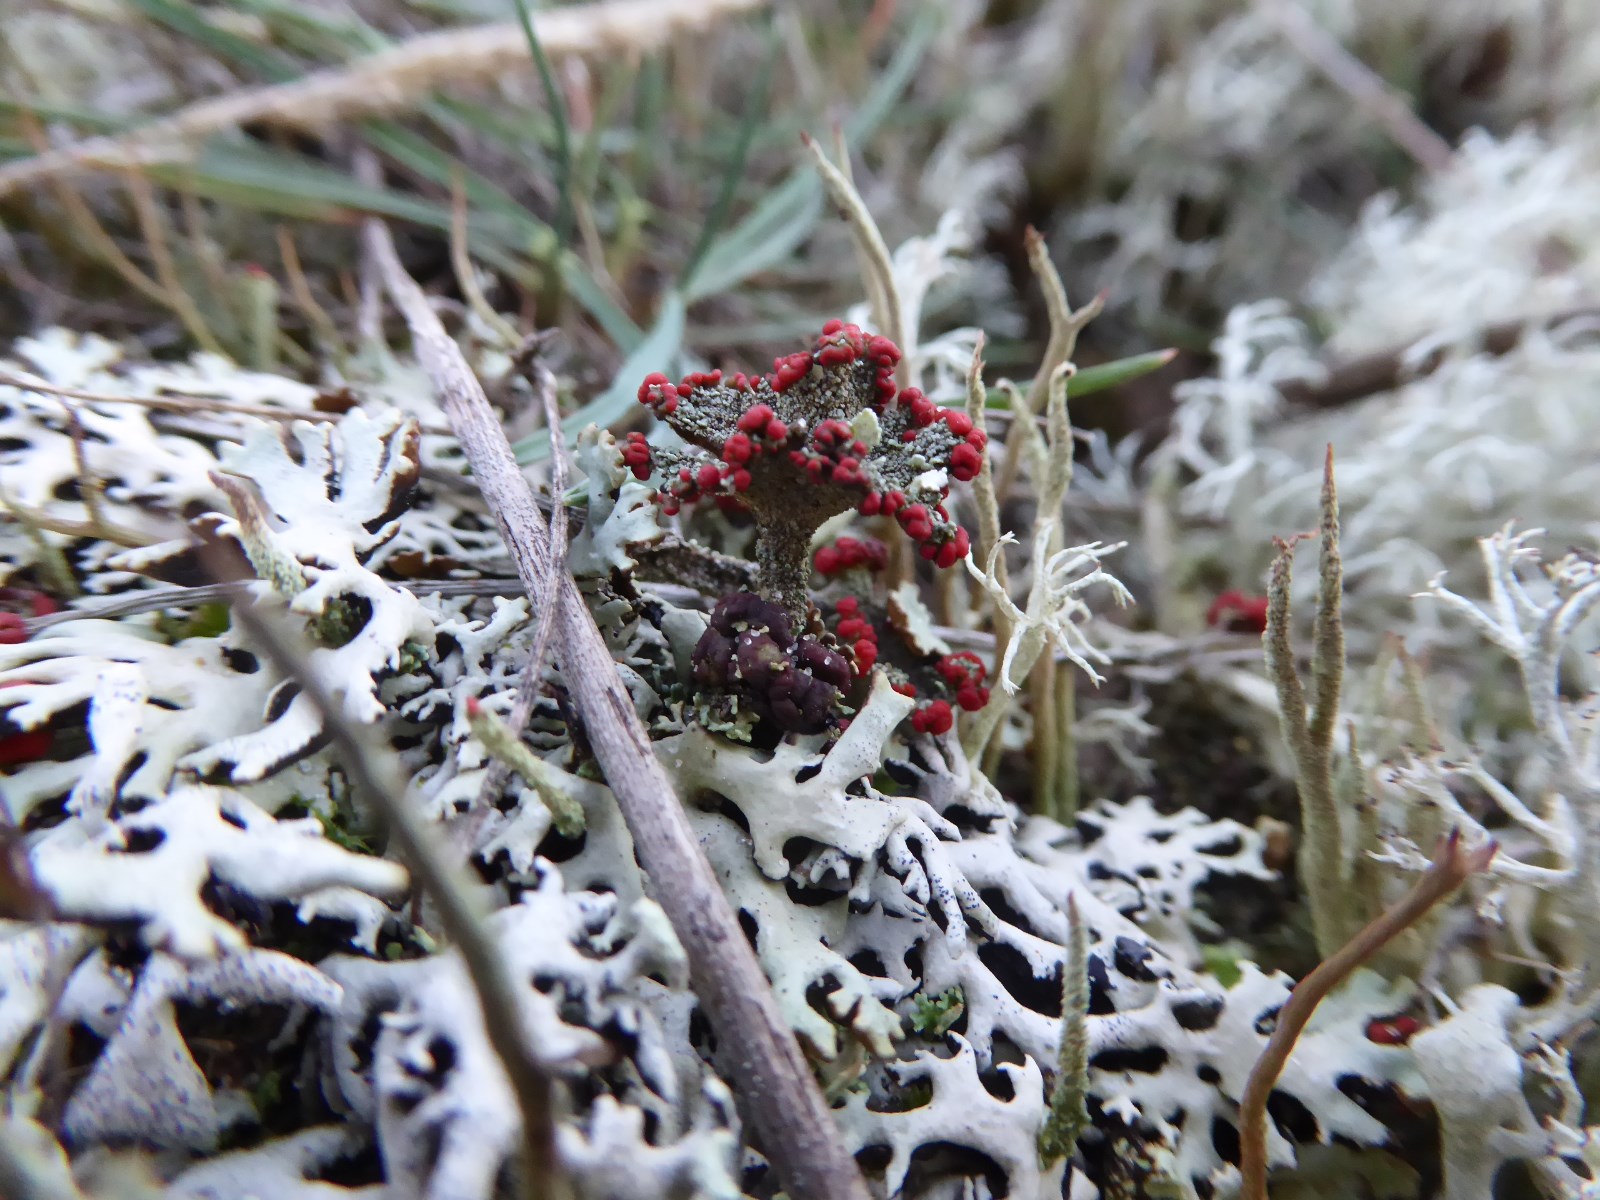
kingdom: Fungi
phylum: Ascomycota
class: Lecanoromycetes
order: Lecanorales
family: Cladoniaceae
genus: Cladonia
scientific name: Cladonia diversa
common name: rød bægerlav
